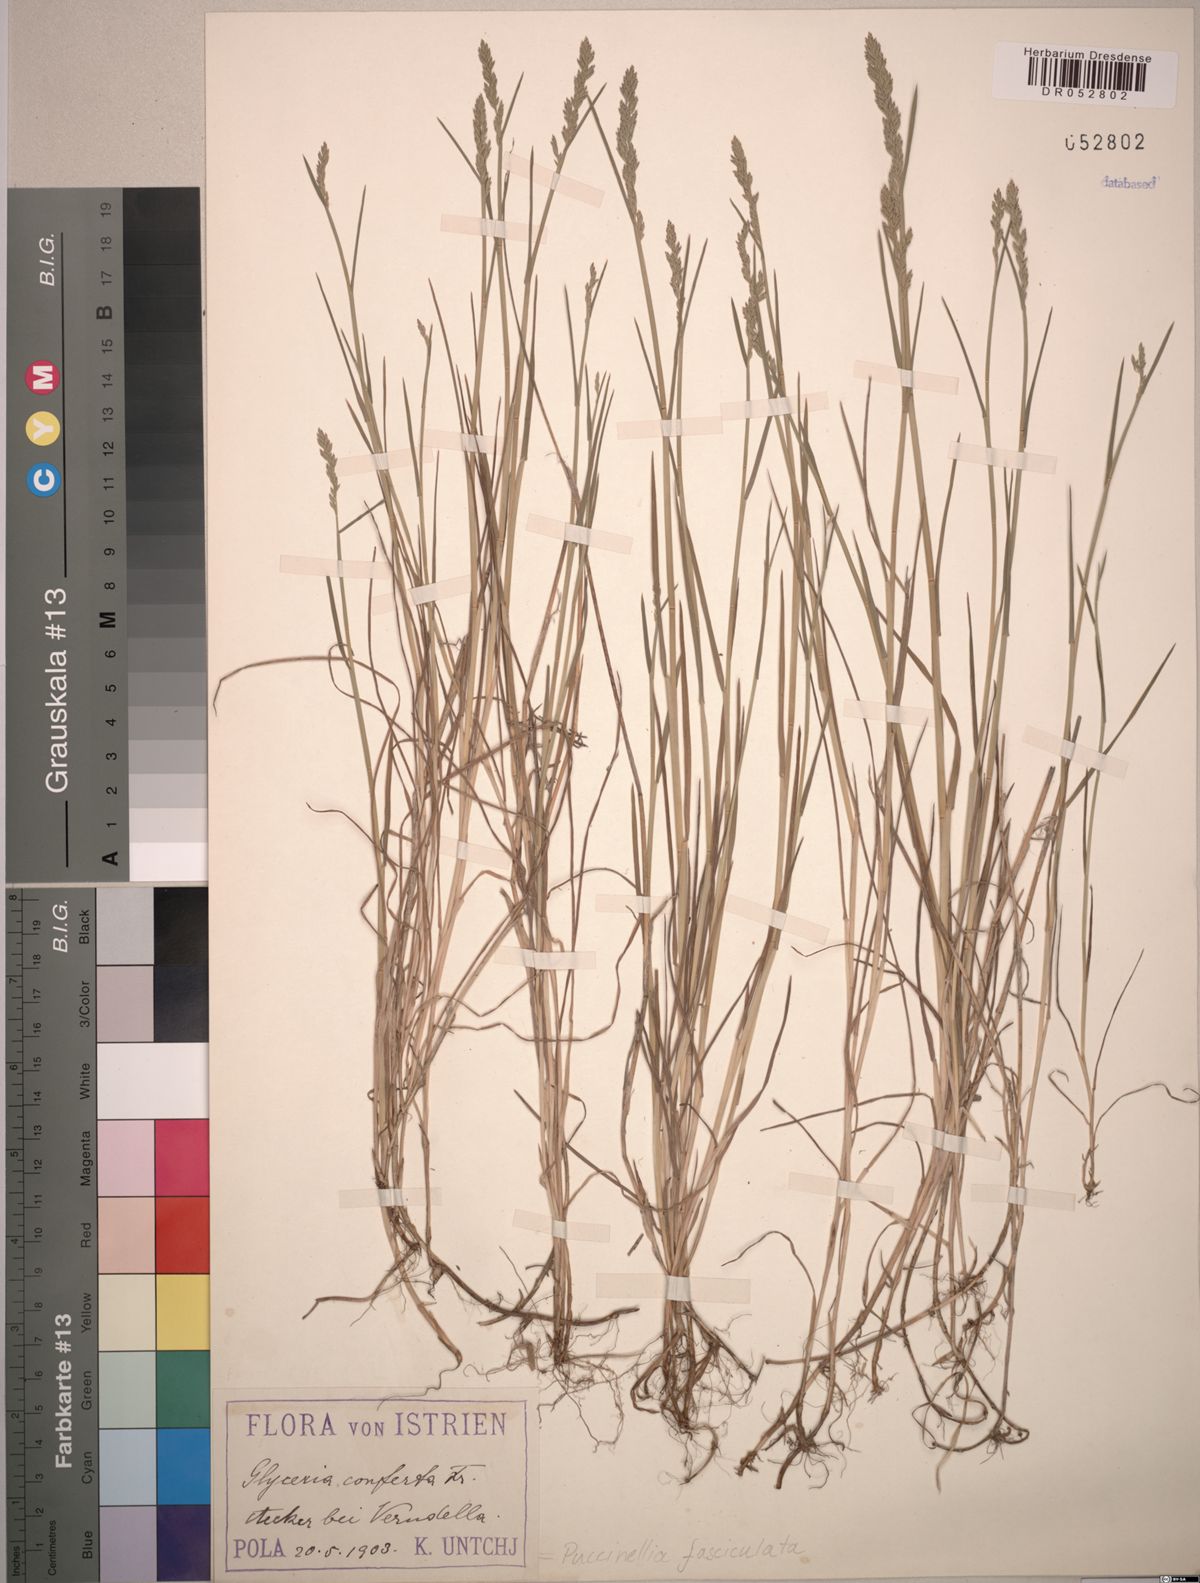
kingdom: Plantae
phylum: Tracheophyta
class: Liliopsida
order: Poales
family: Poaceae
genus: Puccinellia
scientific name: Puccinellia fasciculata
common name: Borrer's saltmarsh-grass
